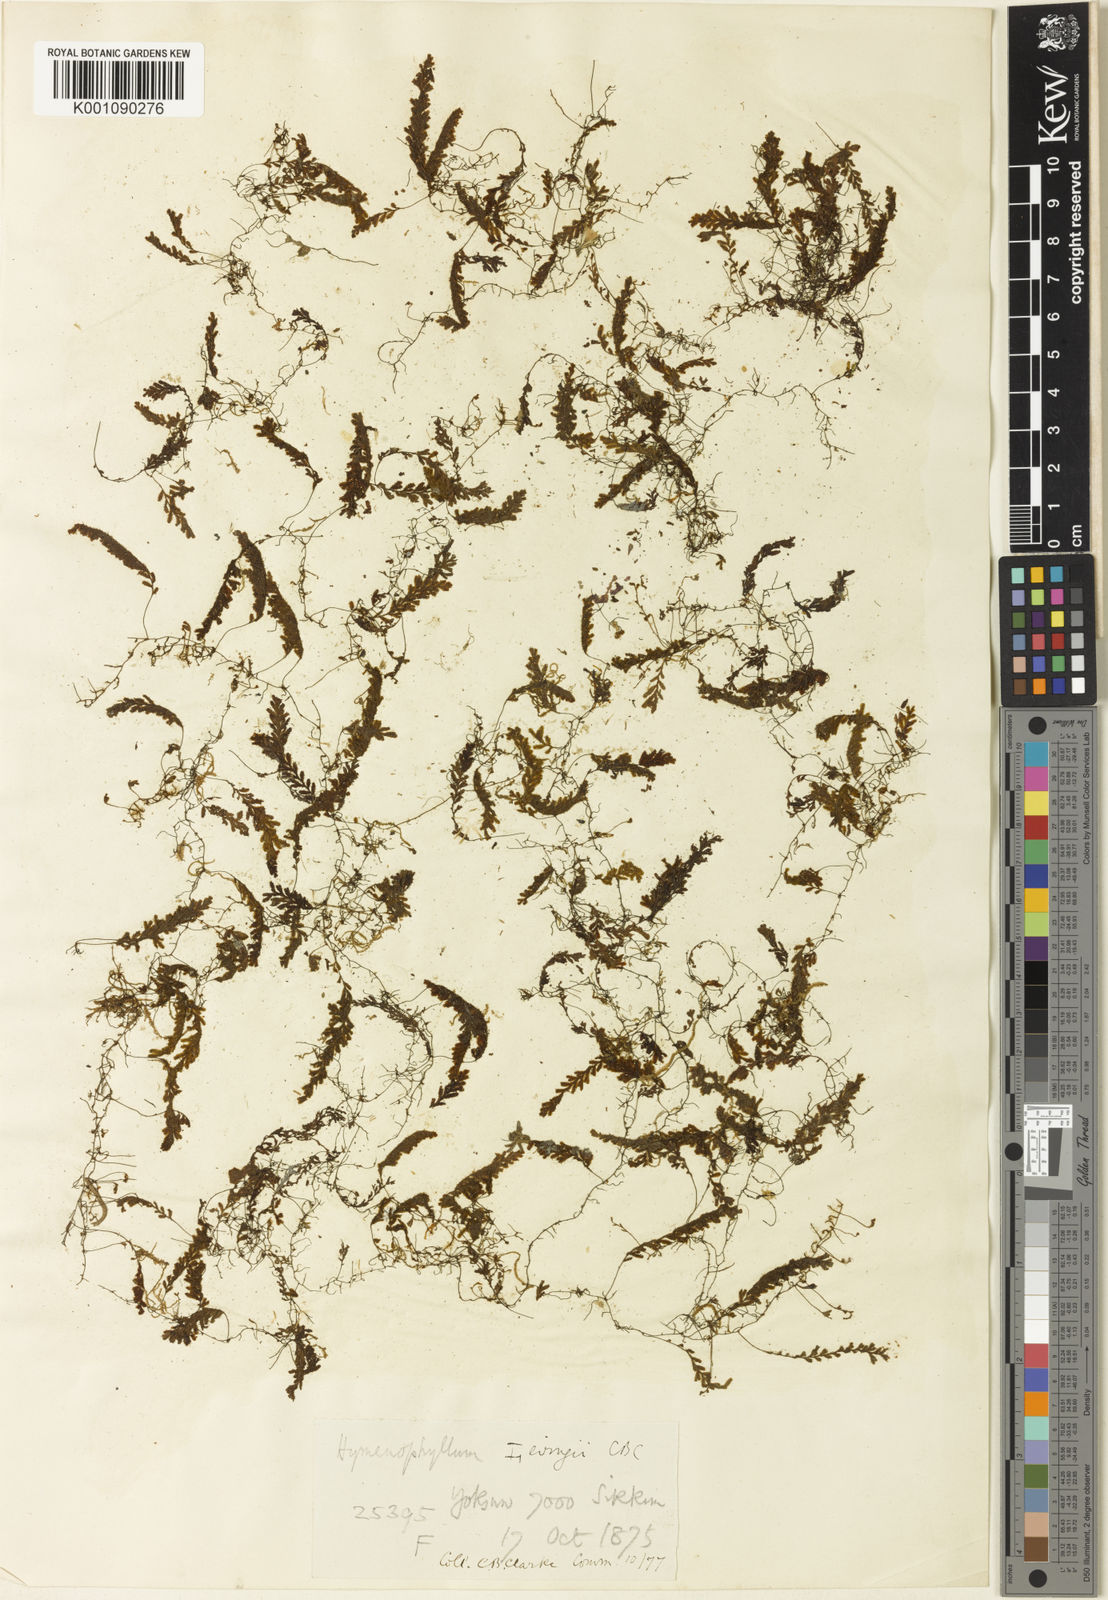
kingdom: Plantae
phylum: Tracheophyta
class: Polypodiopsida
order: Hymenophyllales
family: Hymenophyllaceae
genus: Hymenophyllum
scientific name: Hymenophyllum levingei
